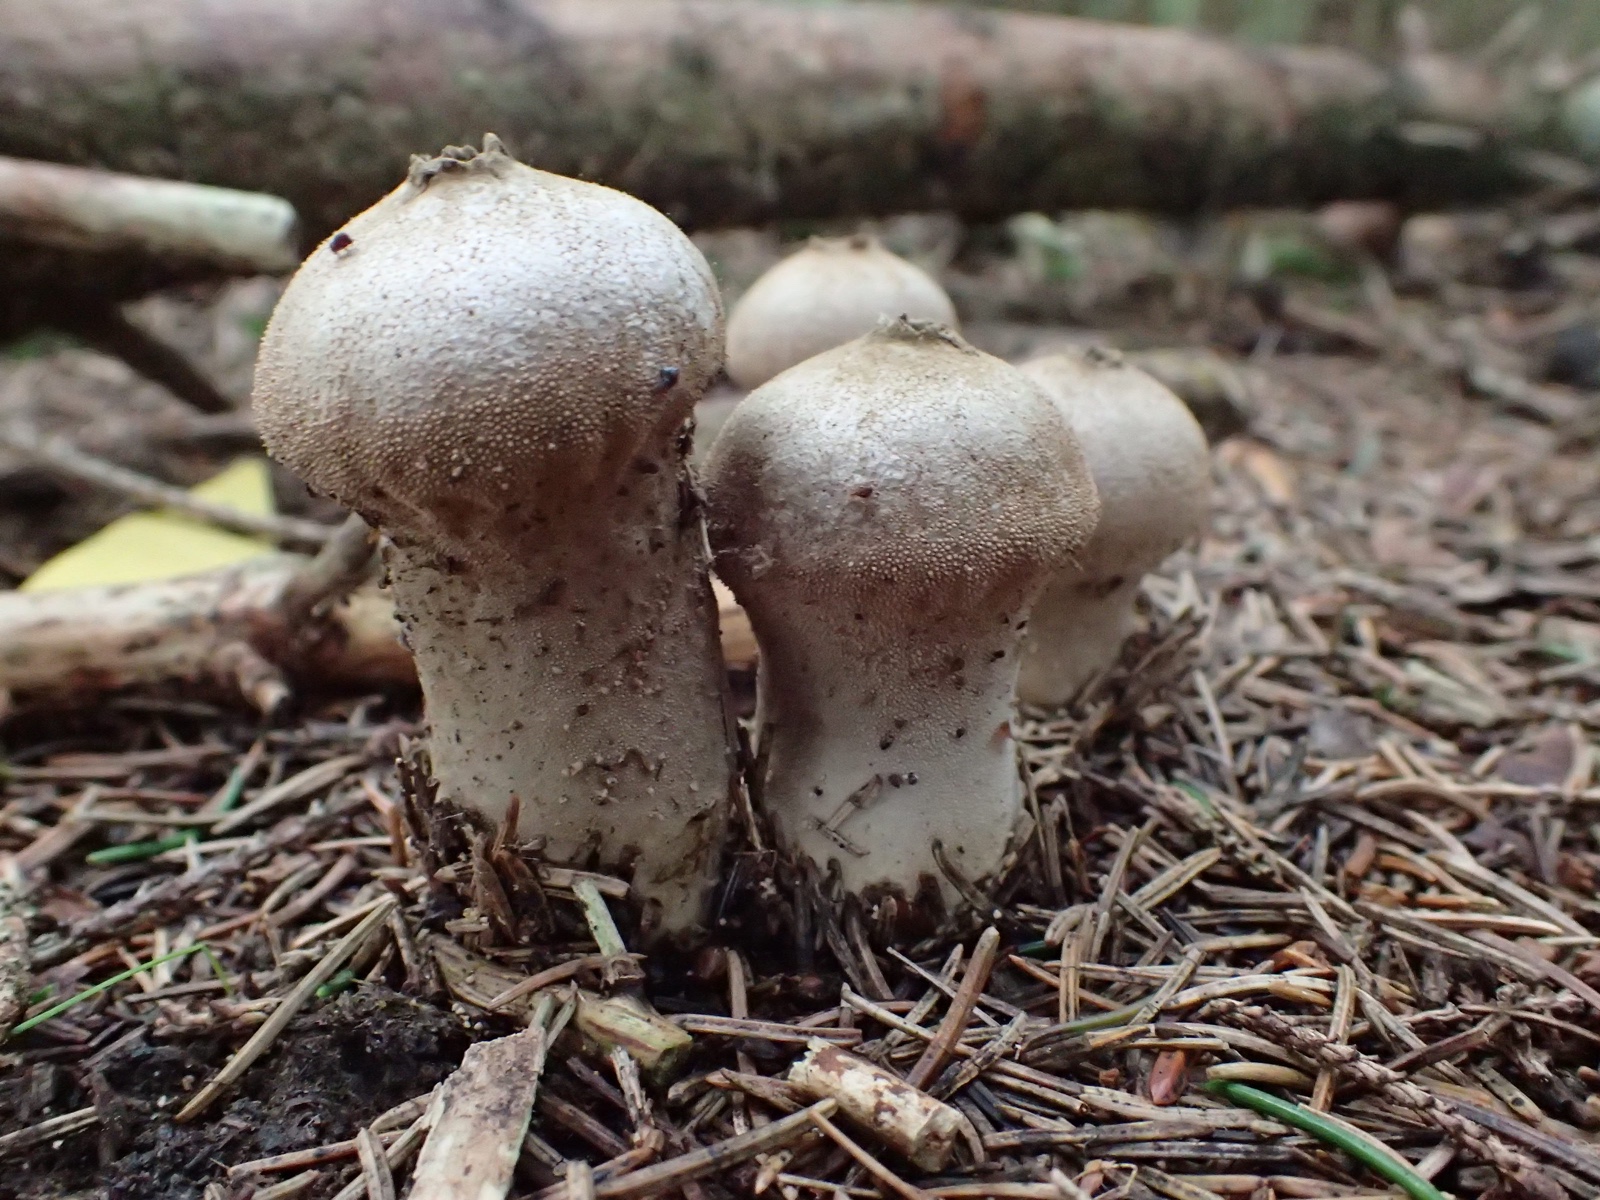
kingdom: Fungi
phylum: Basidiomycota
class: Agaricomycetes
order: Agaricales
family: Lycoperdaceae
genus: Lycoperdon
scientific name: Lycoperdon perlatum
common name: krystal-støvbold
